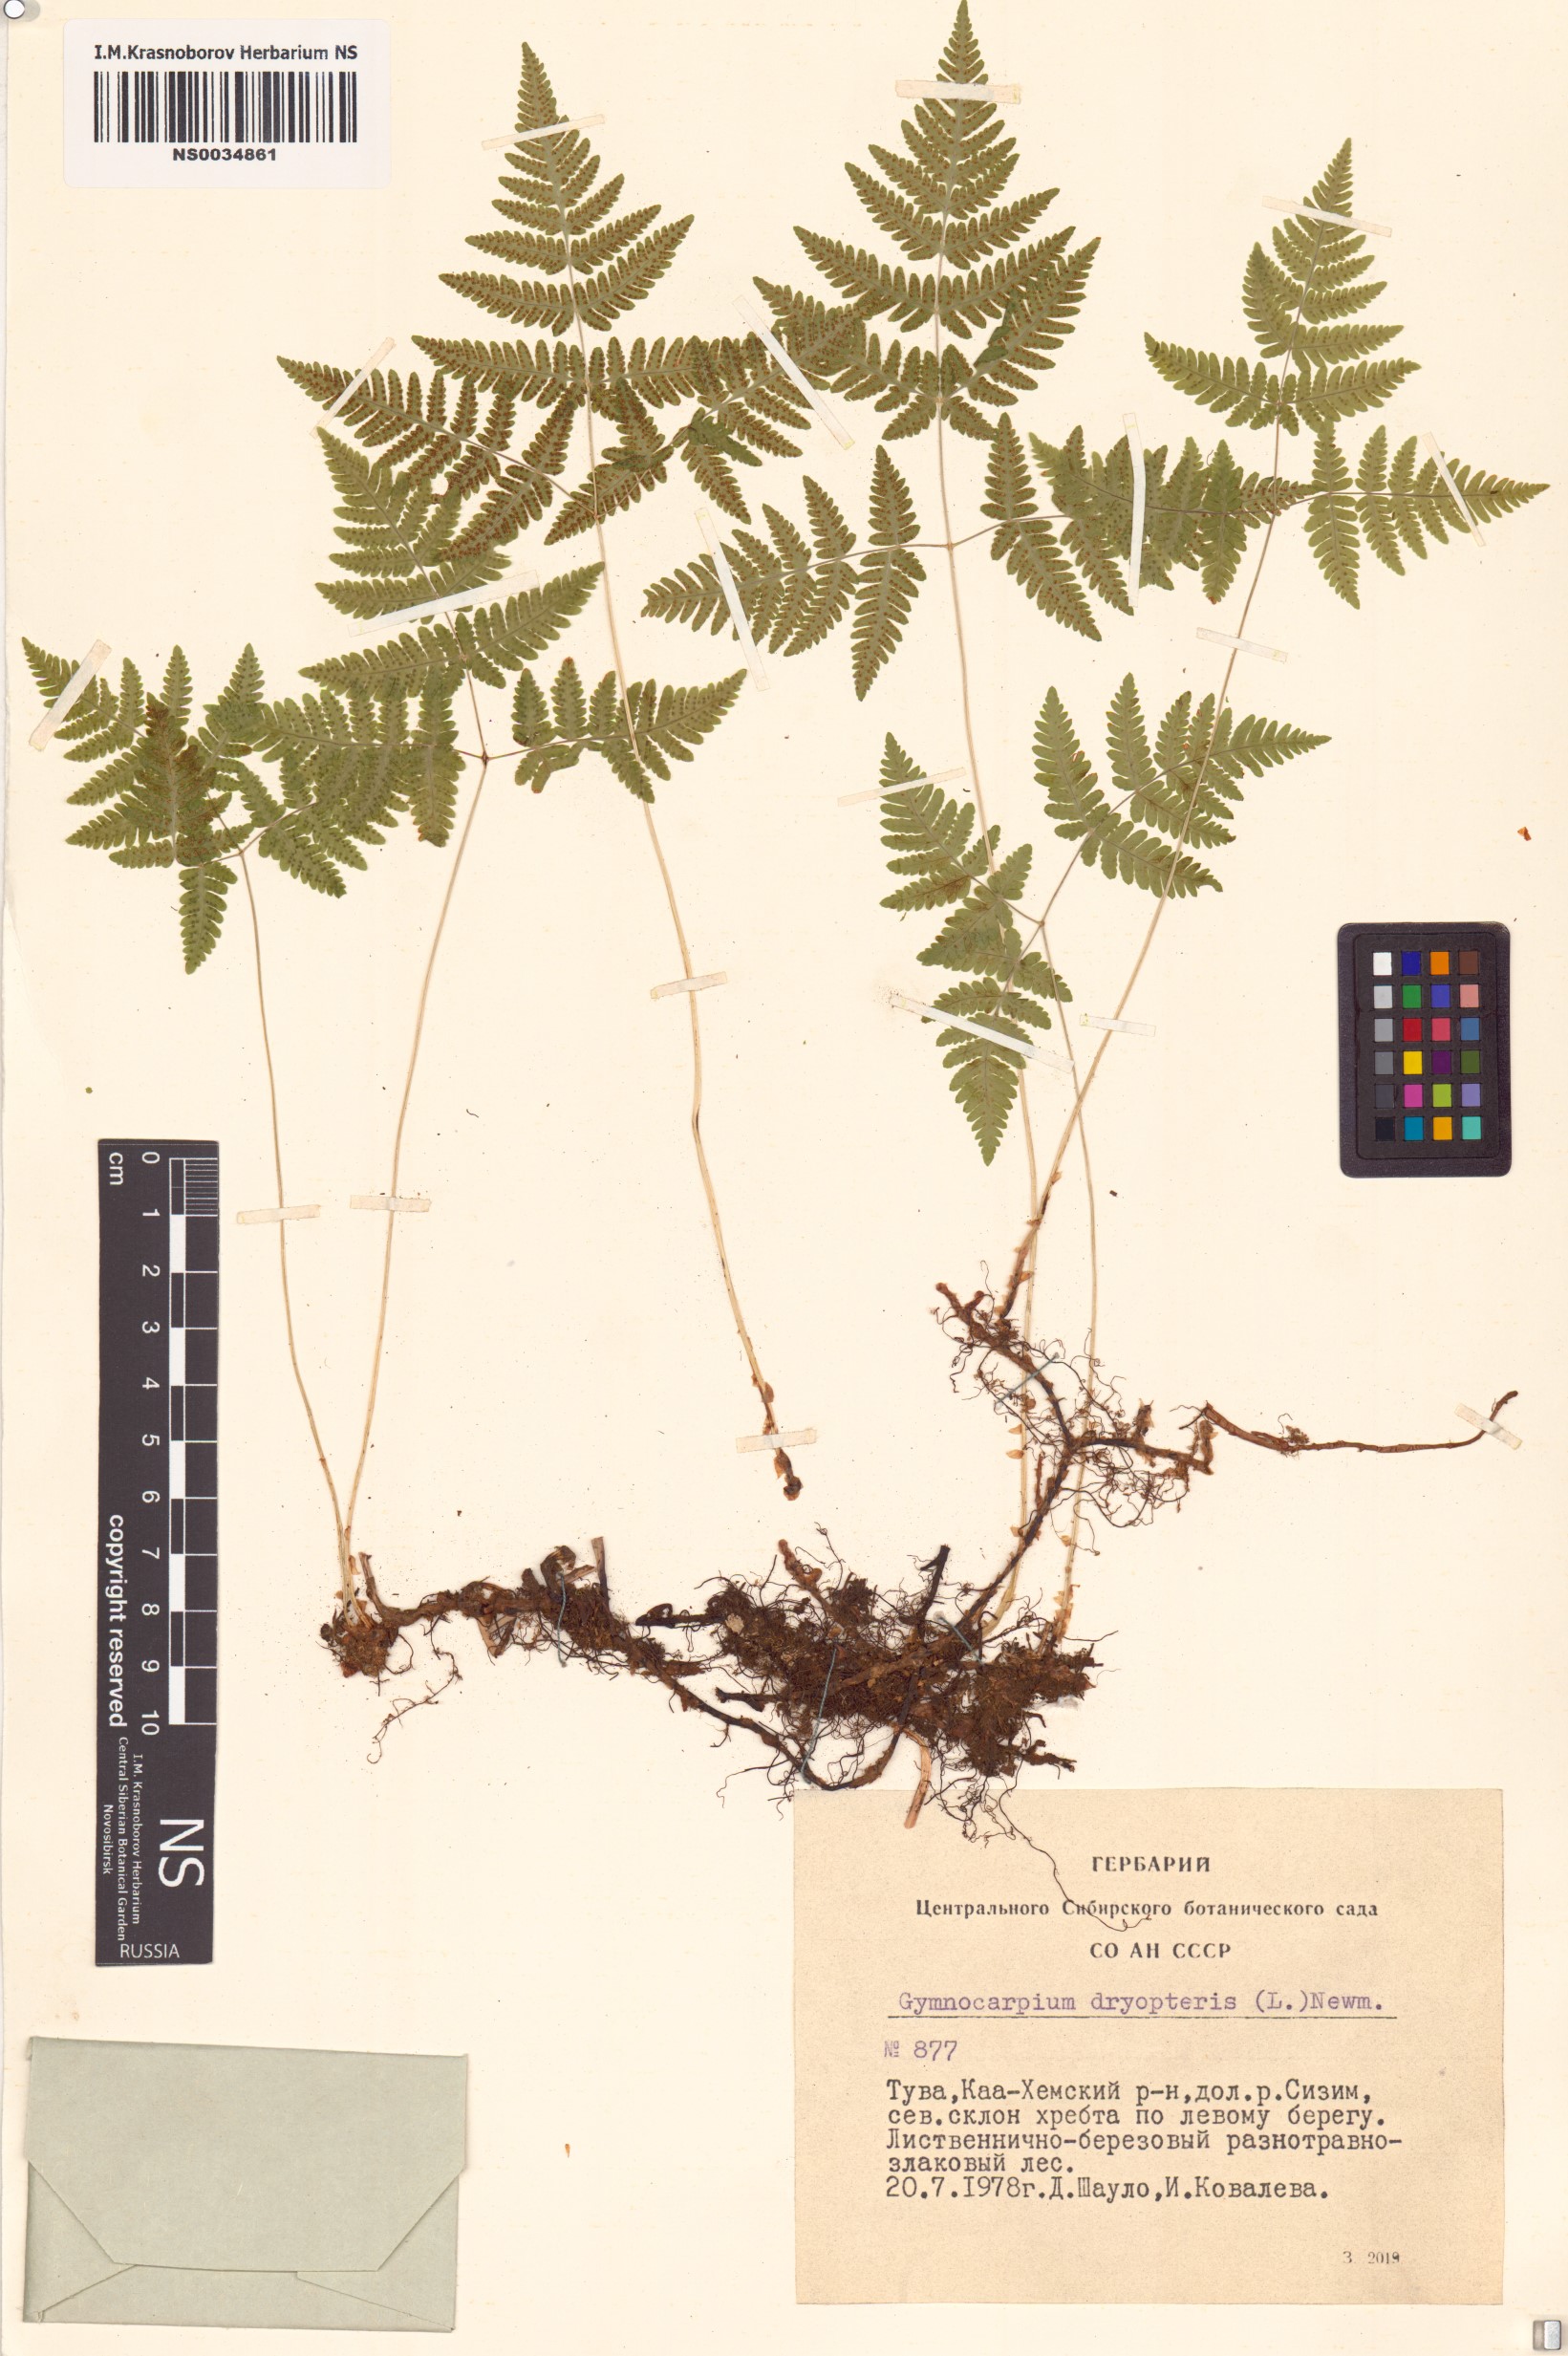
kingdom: Plantae
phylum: Tracheophyta
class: Polypodiopsida
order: Polypodiales
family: Cystopteridaceae
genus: Gymnocarpium
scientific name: Gymnocarpium dryopteris
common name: Oak fern
